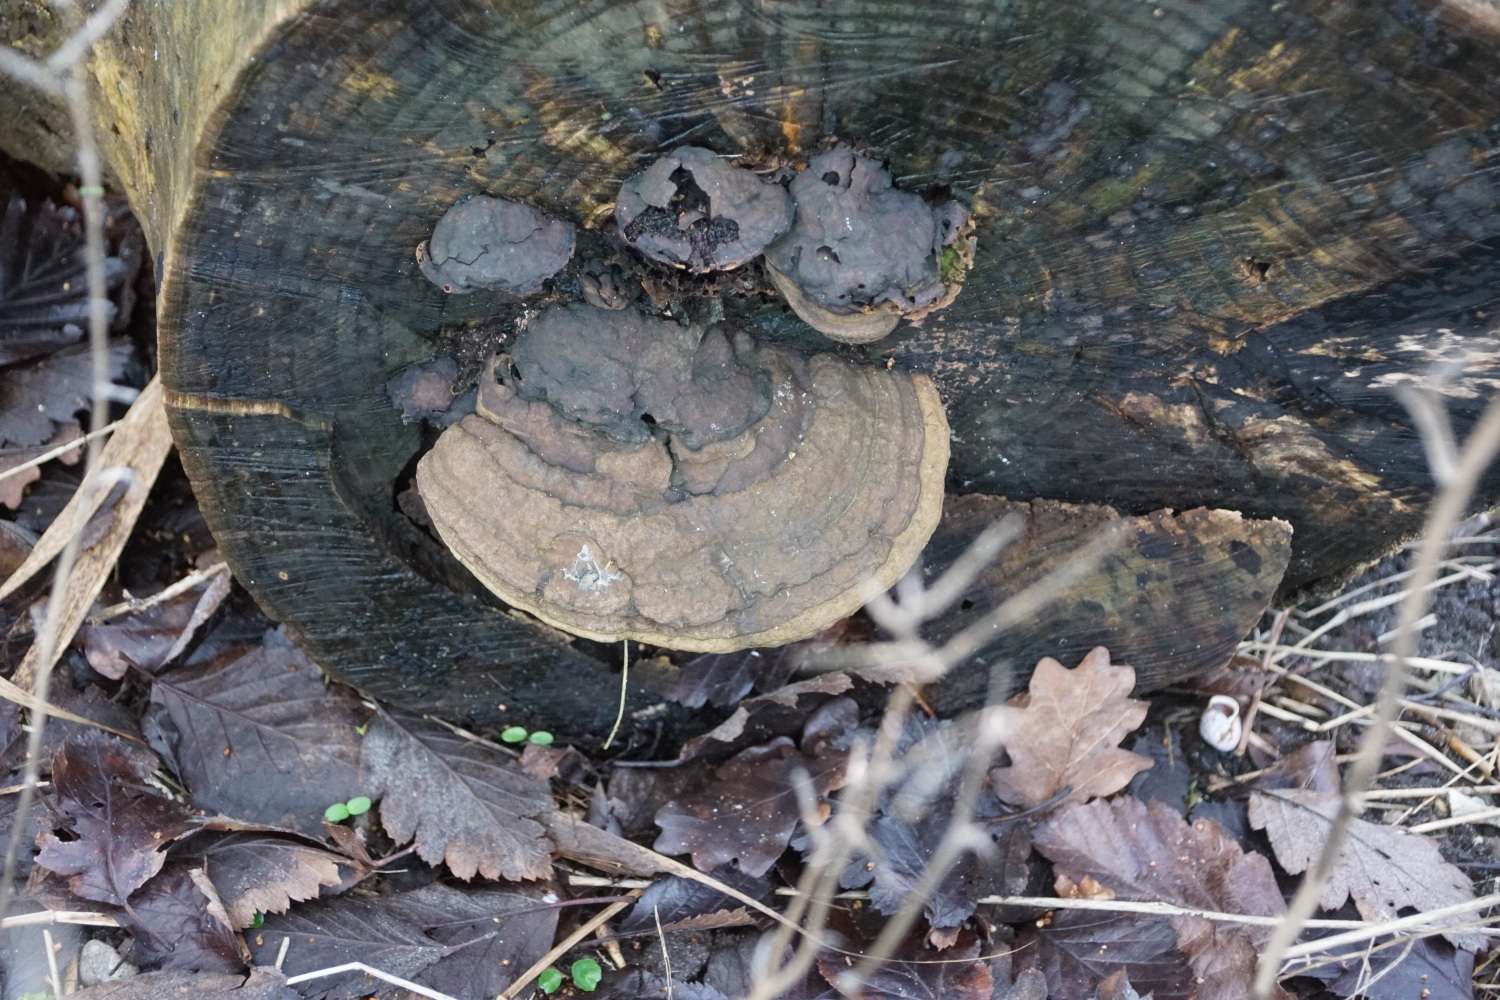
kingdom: Fungi
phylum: Basidiomycota
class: Agaricomycetes
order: Polyporales
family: Polyporaceae
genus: Ganoderma
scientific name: Ganoderma applanatum
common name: flad lakporesvamp
